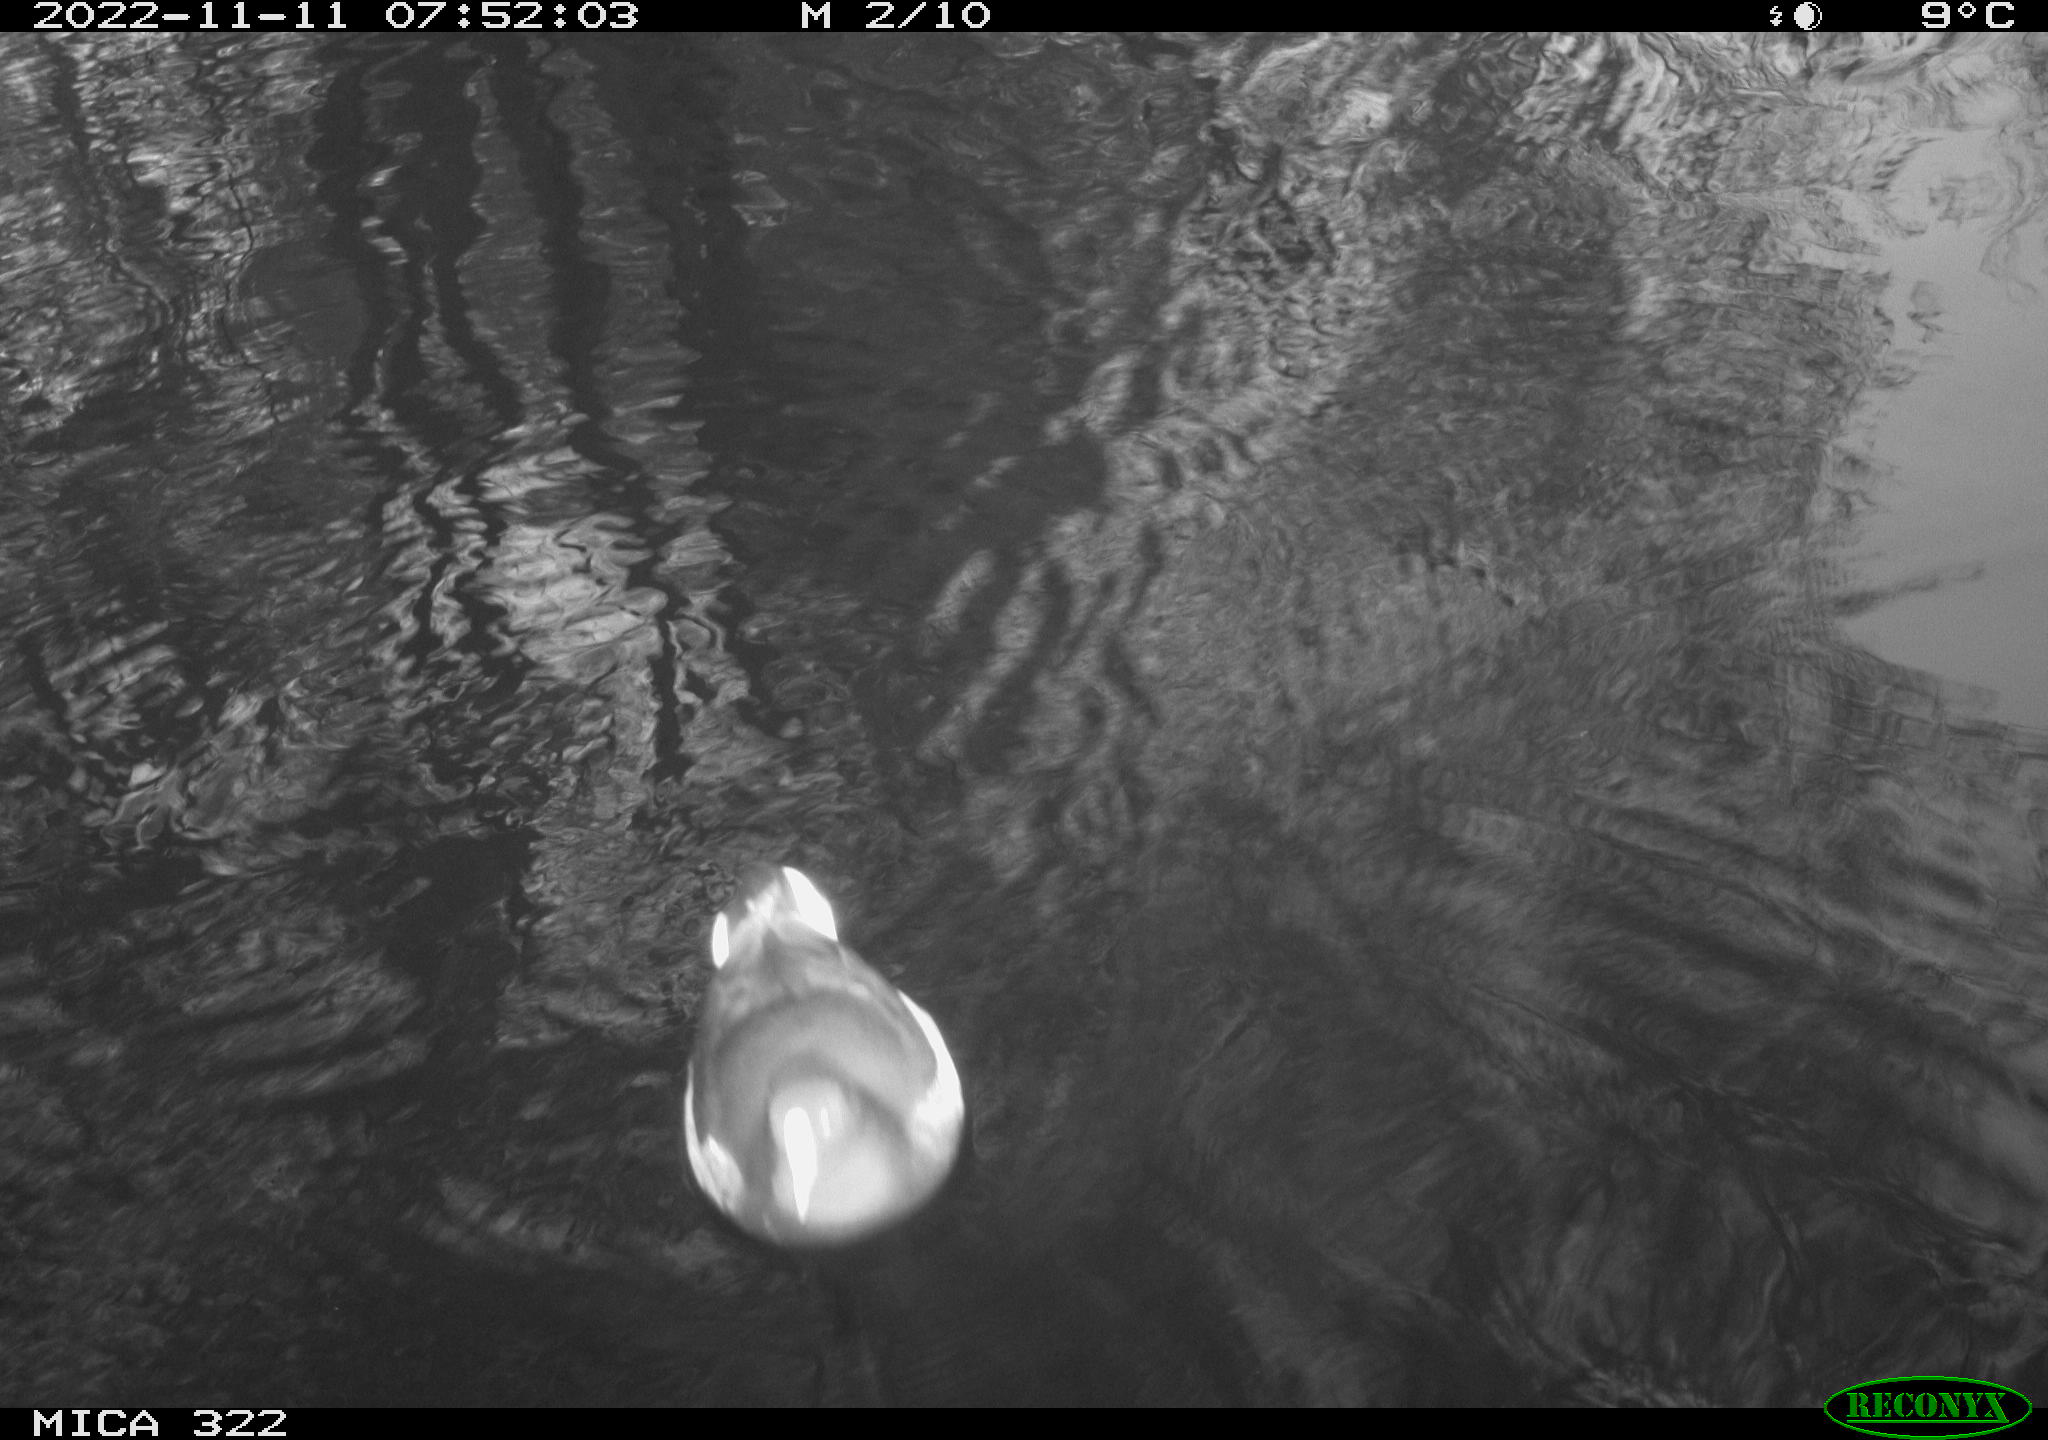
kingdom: Animalia
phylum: Chordata
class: Aves
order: Gruiformes
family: Rallidae
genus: Fulica
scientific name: Fulica atra
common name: Eurasian coot
